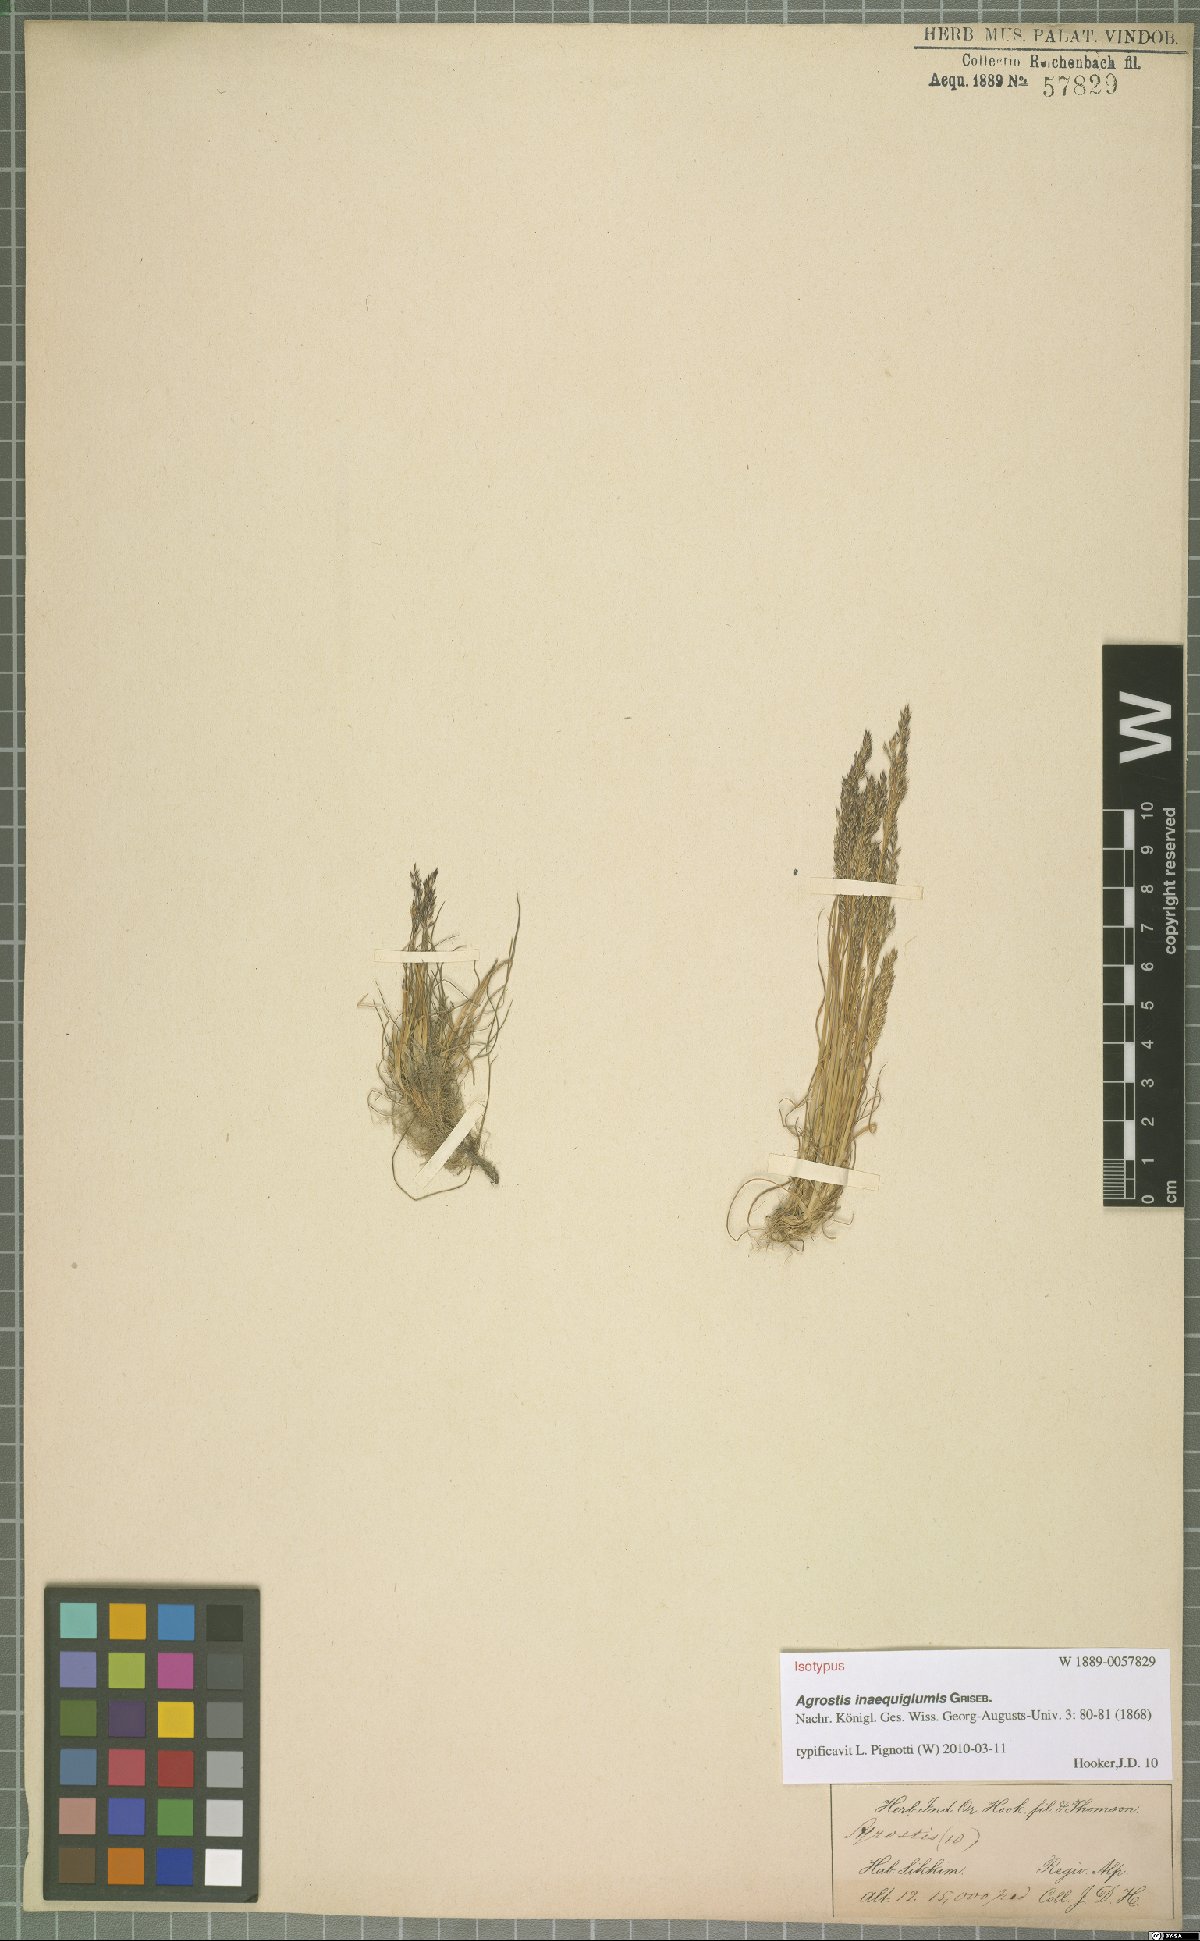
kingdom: Plantae
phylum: Tracheophyta
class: Liliopsida
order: Poales
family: Poaceae
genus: Agrostis
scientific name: Agrostis inaequiglumis
